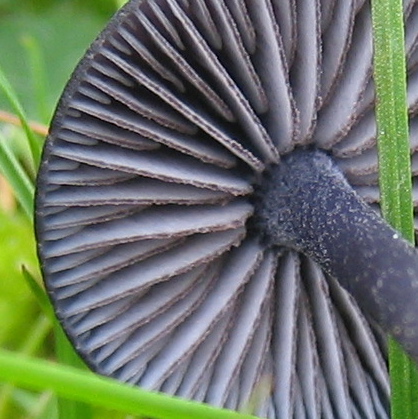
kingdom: Fungi
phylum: Basidiomycota
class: Agaricomycetes
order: Agaricales
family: Entolomataceae
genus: Entoloma
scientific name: Entoloma chalybeum
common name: blåbladet rødblad
